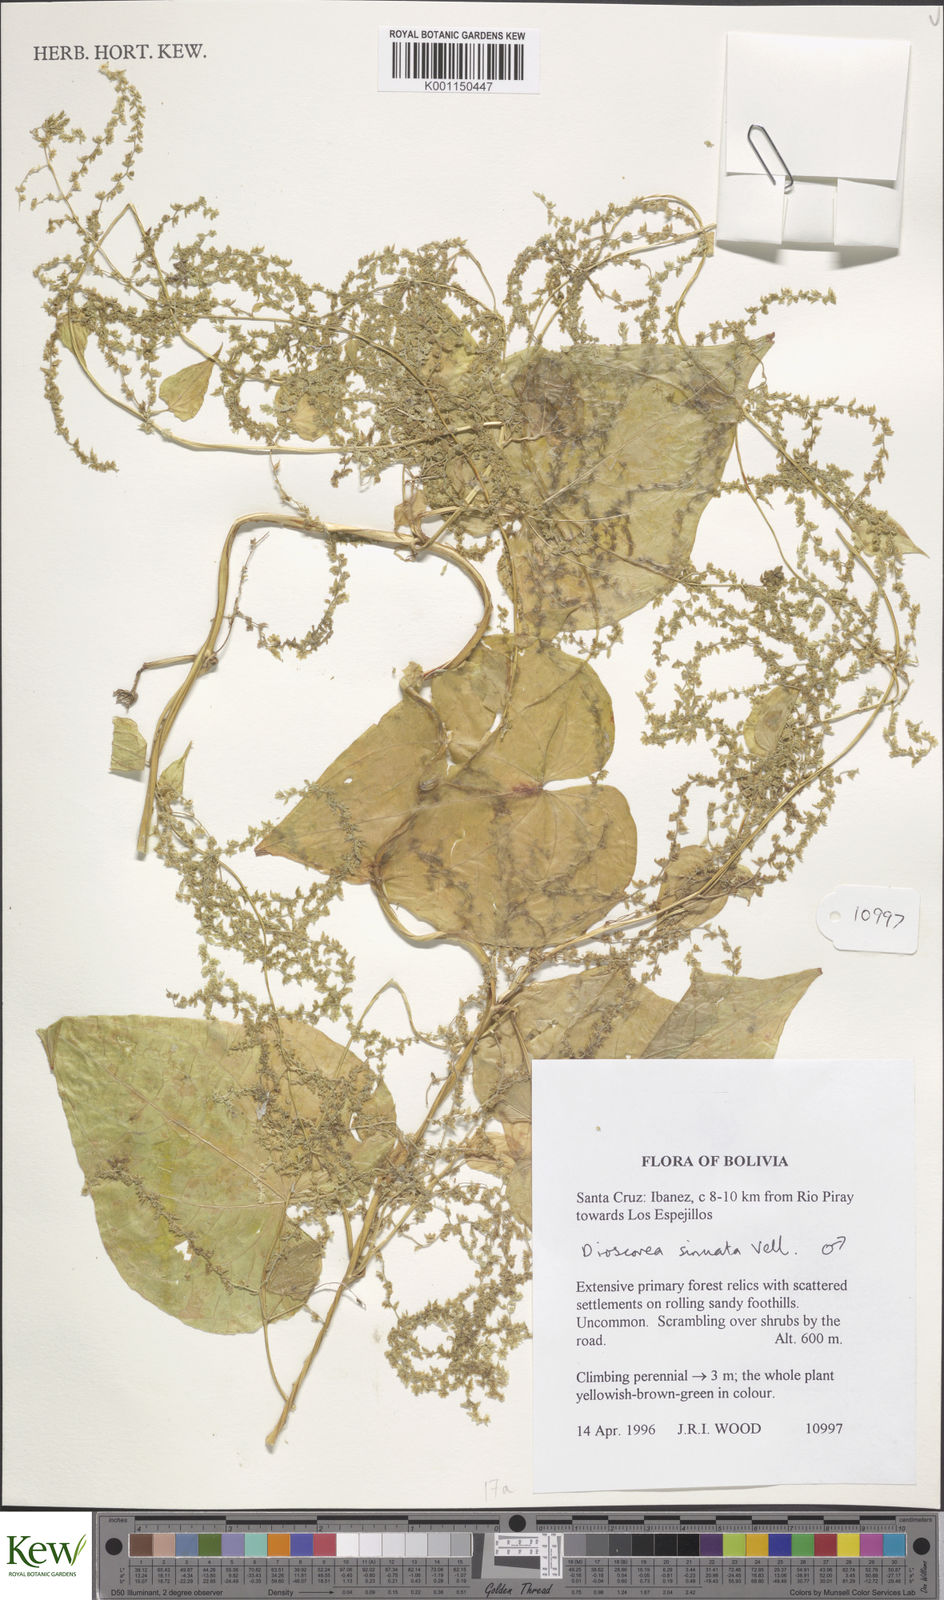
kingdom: Plantae
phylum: Tracheophyta
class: Liliopsida
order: Dioscoreales
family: Dioscoreaceae
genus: Dioscorea
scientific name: Dioscorea rumicoides
